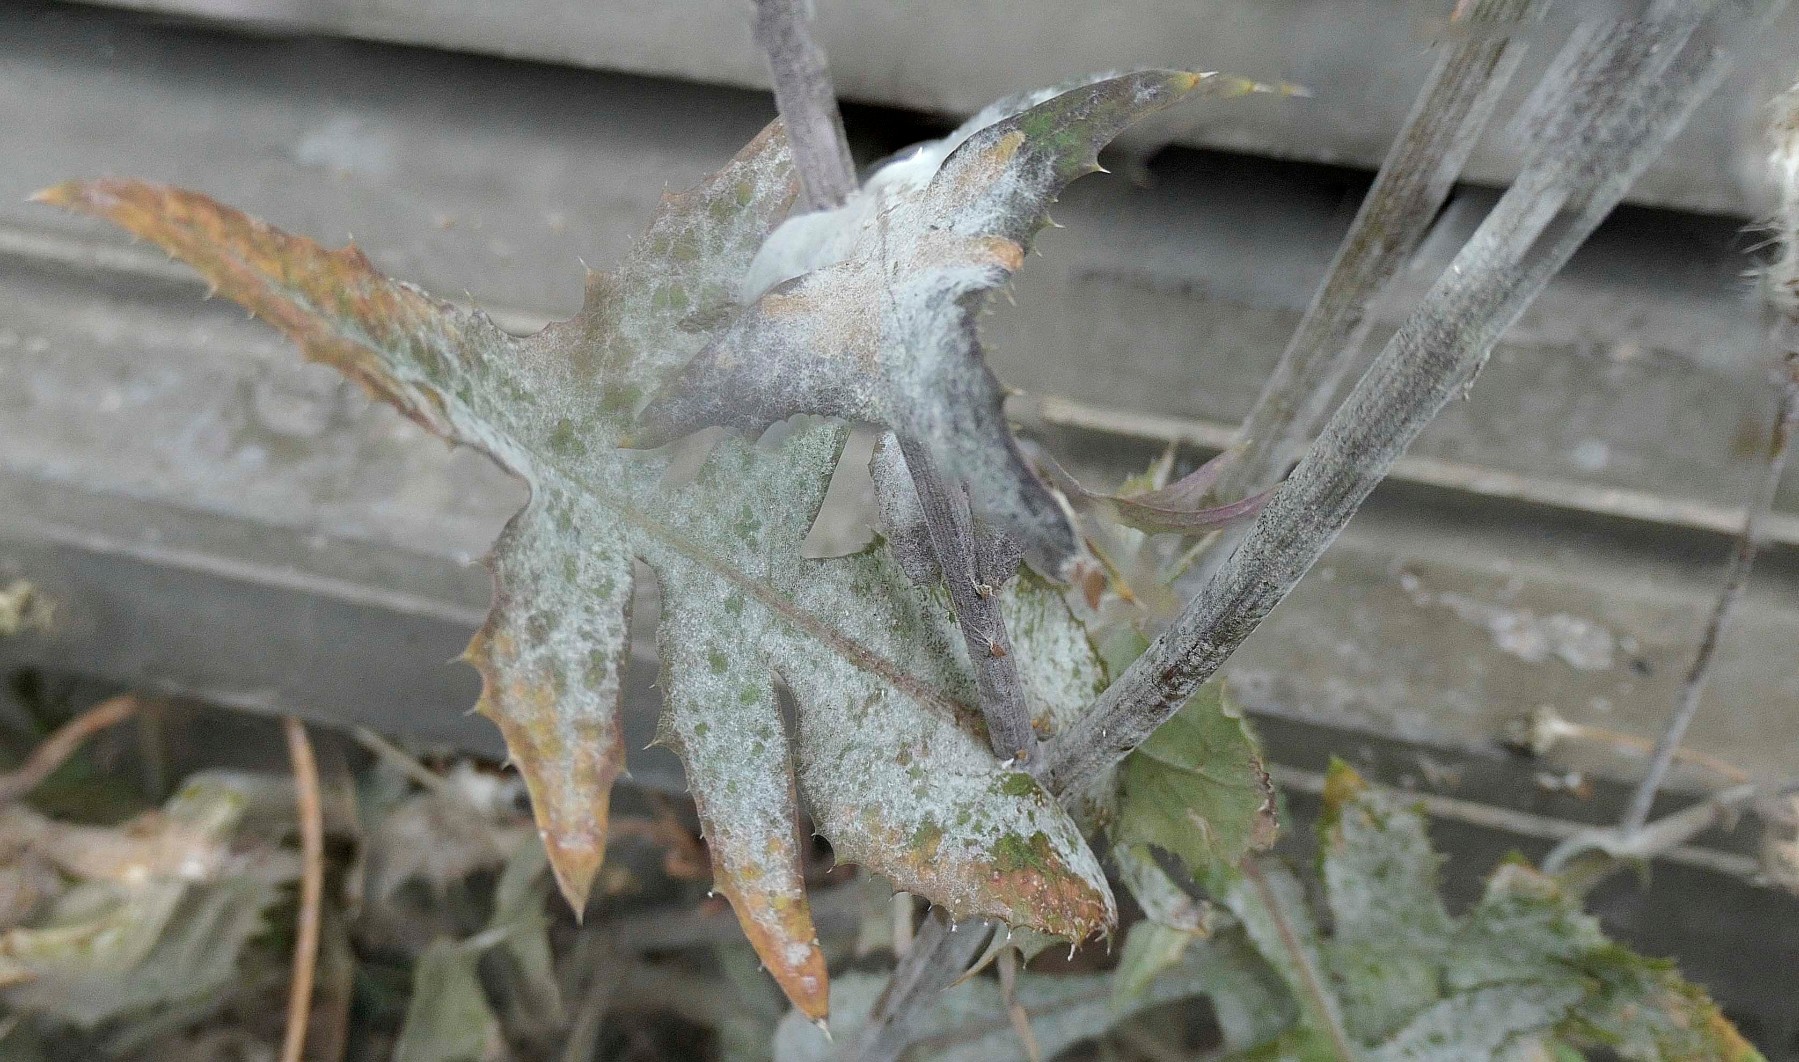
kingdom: Fungi
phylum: Ascomycota
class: Leotiomycetes
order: Helotiales
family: Erysiphaceae
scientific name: Erysiphaceae
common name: meldugfamilien
